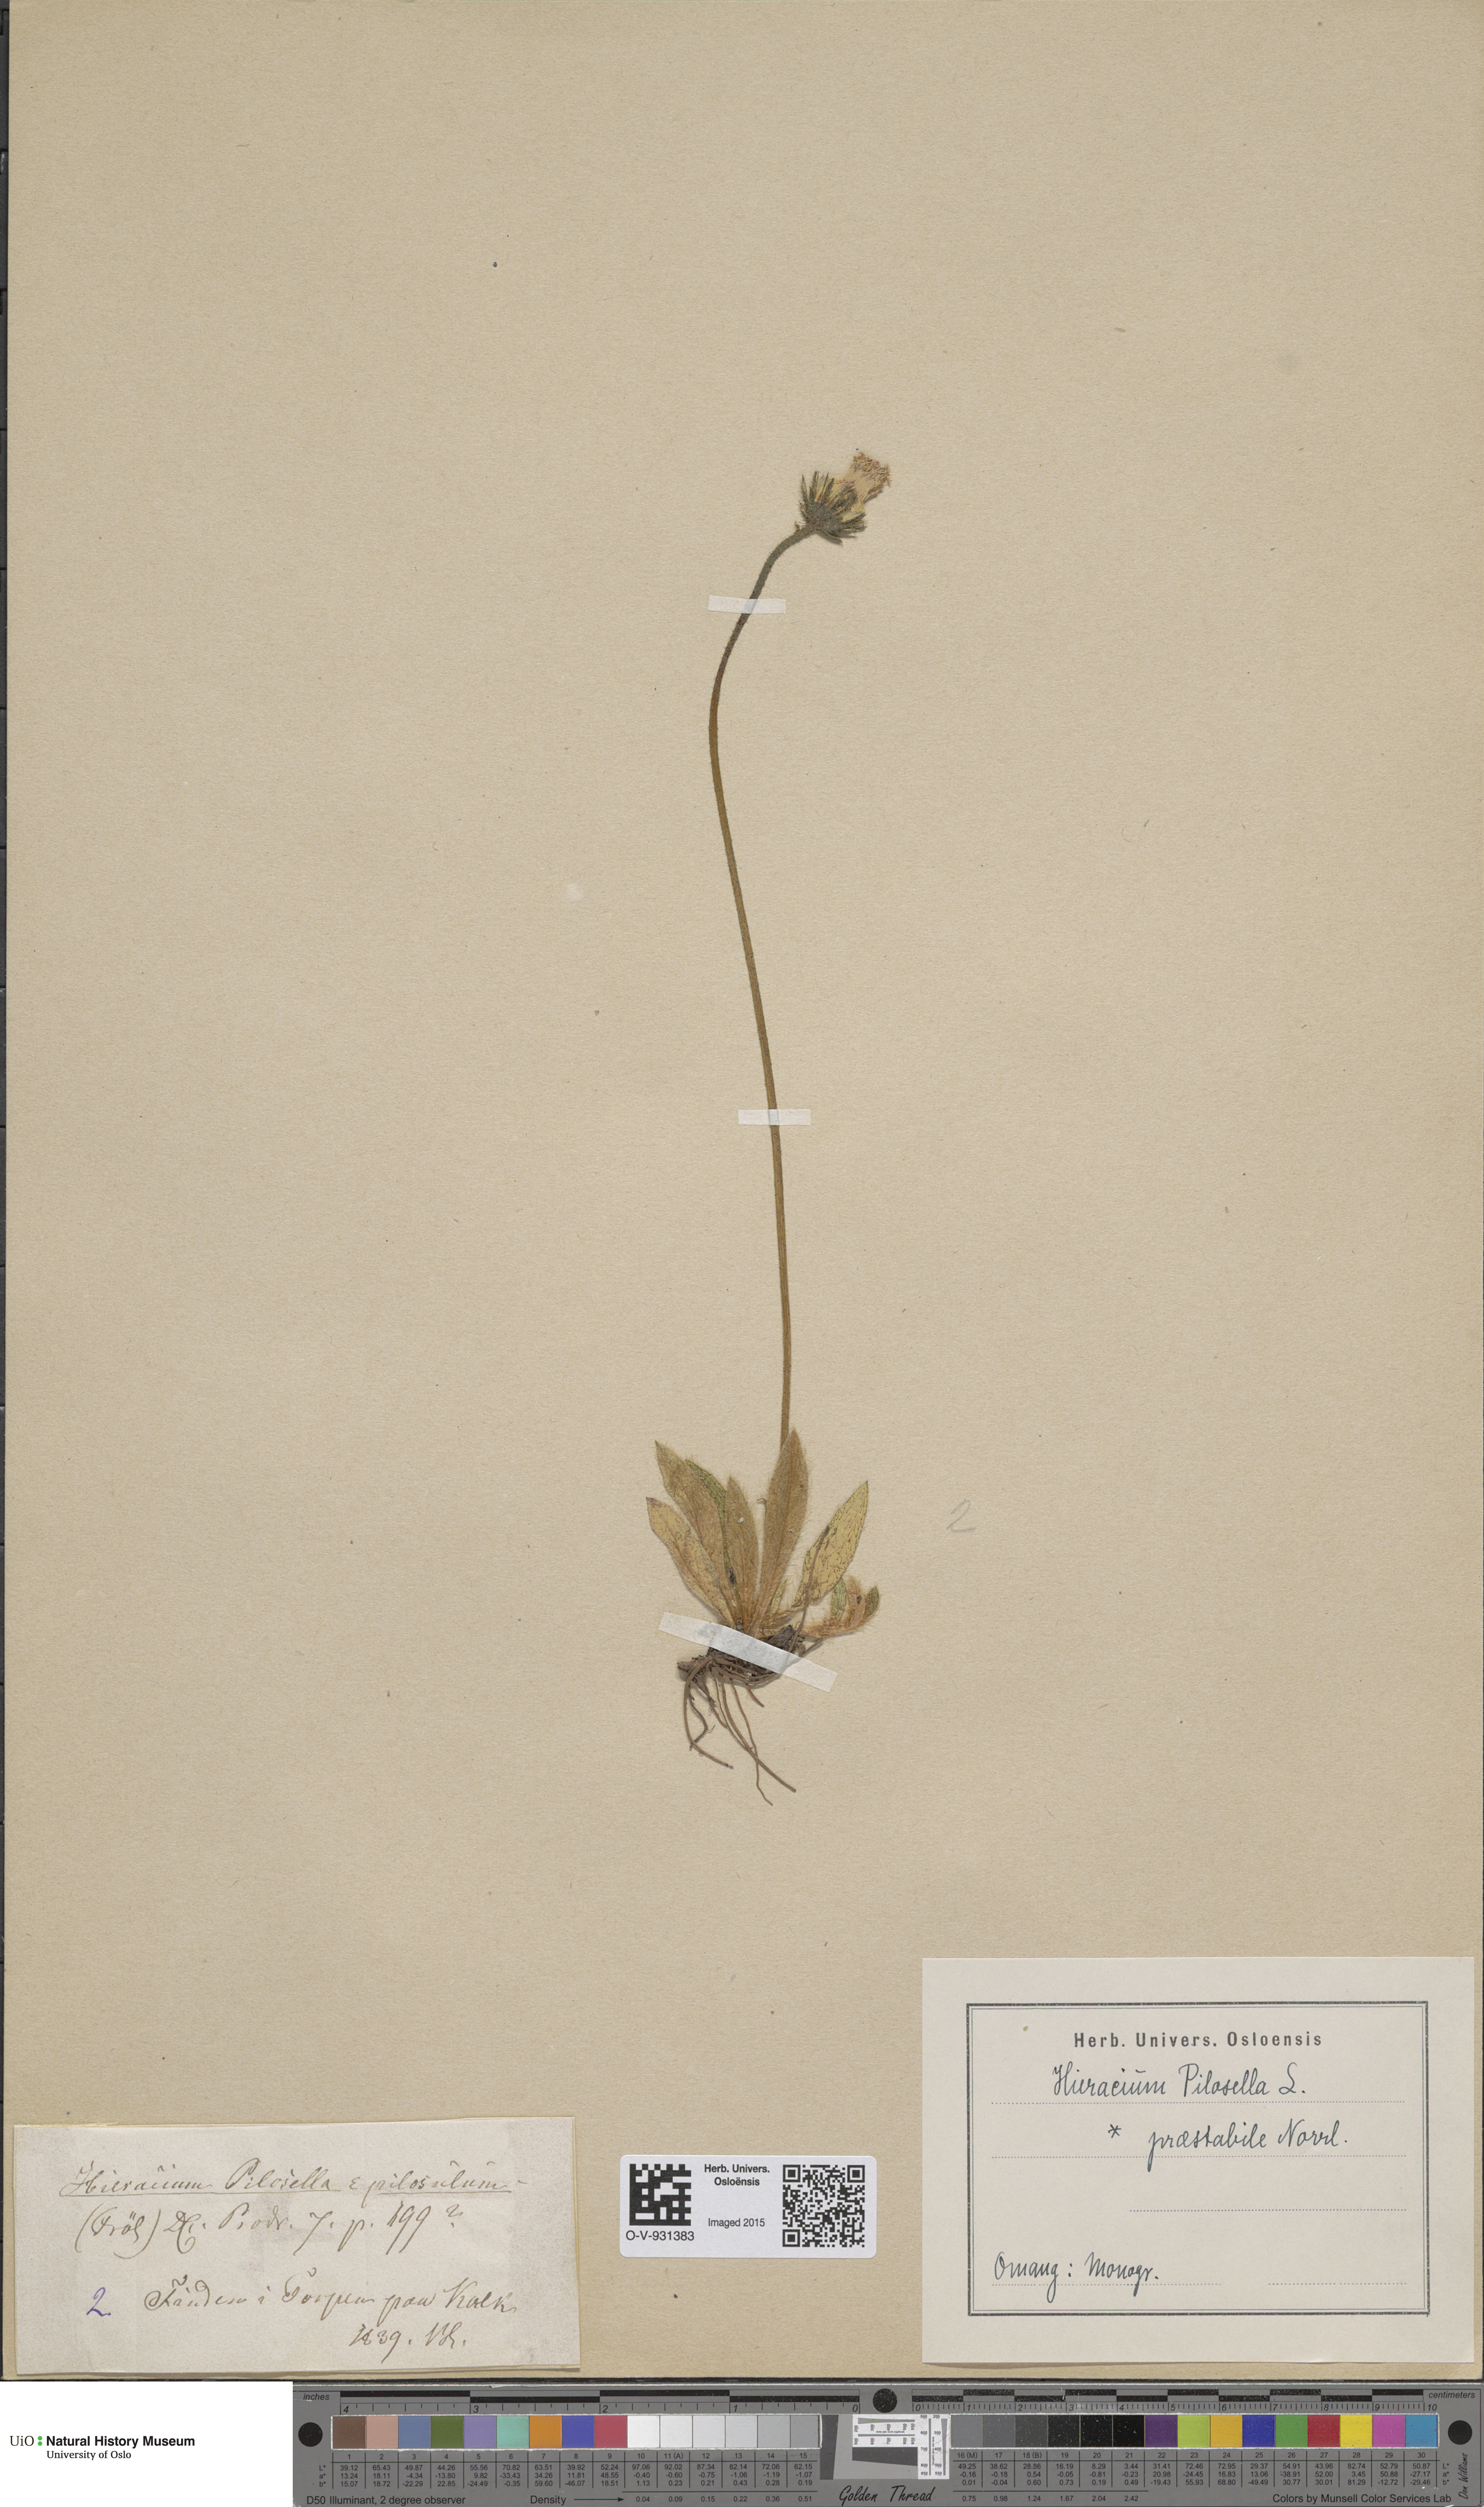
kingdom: Plantae
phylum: Tracheophyta
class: Magnoliopsida
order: Asterales
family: Asteraceae
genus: Pilosella
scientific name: Pilosella officinarum
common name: Mouse-ear hawkweed
